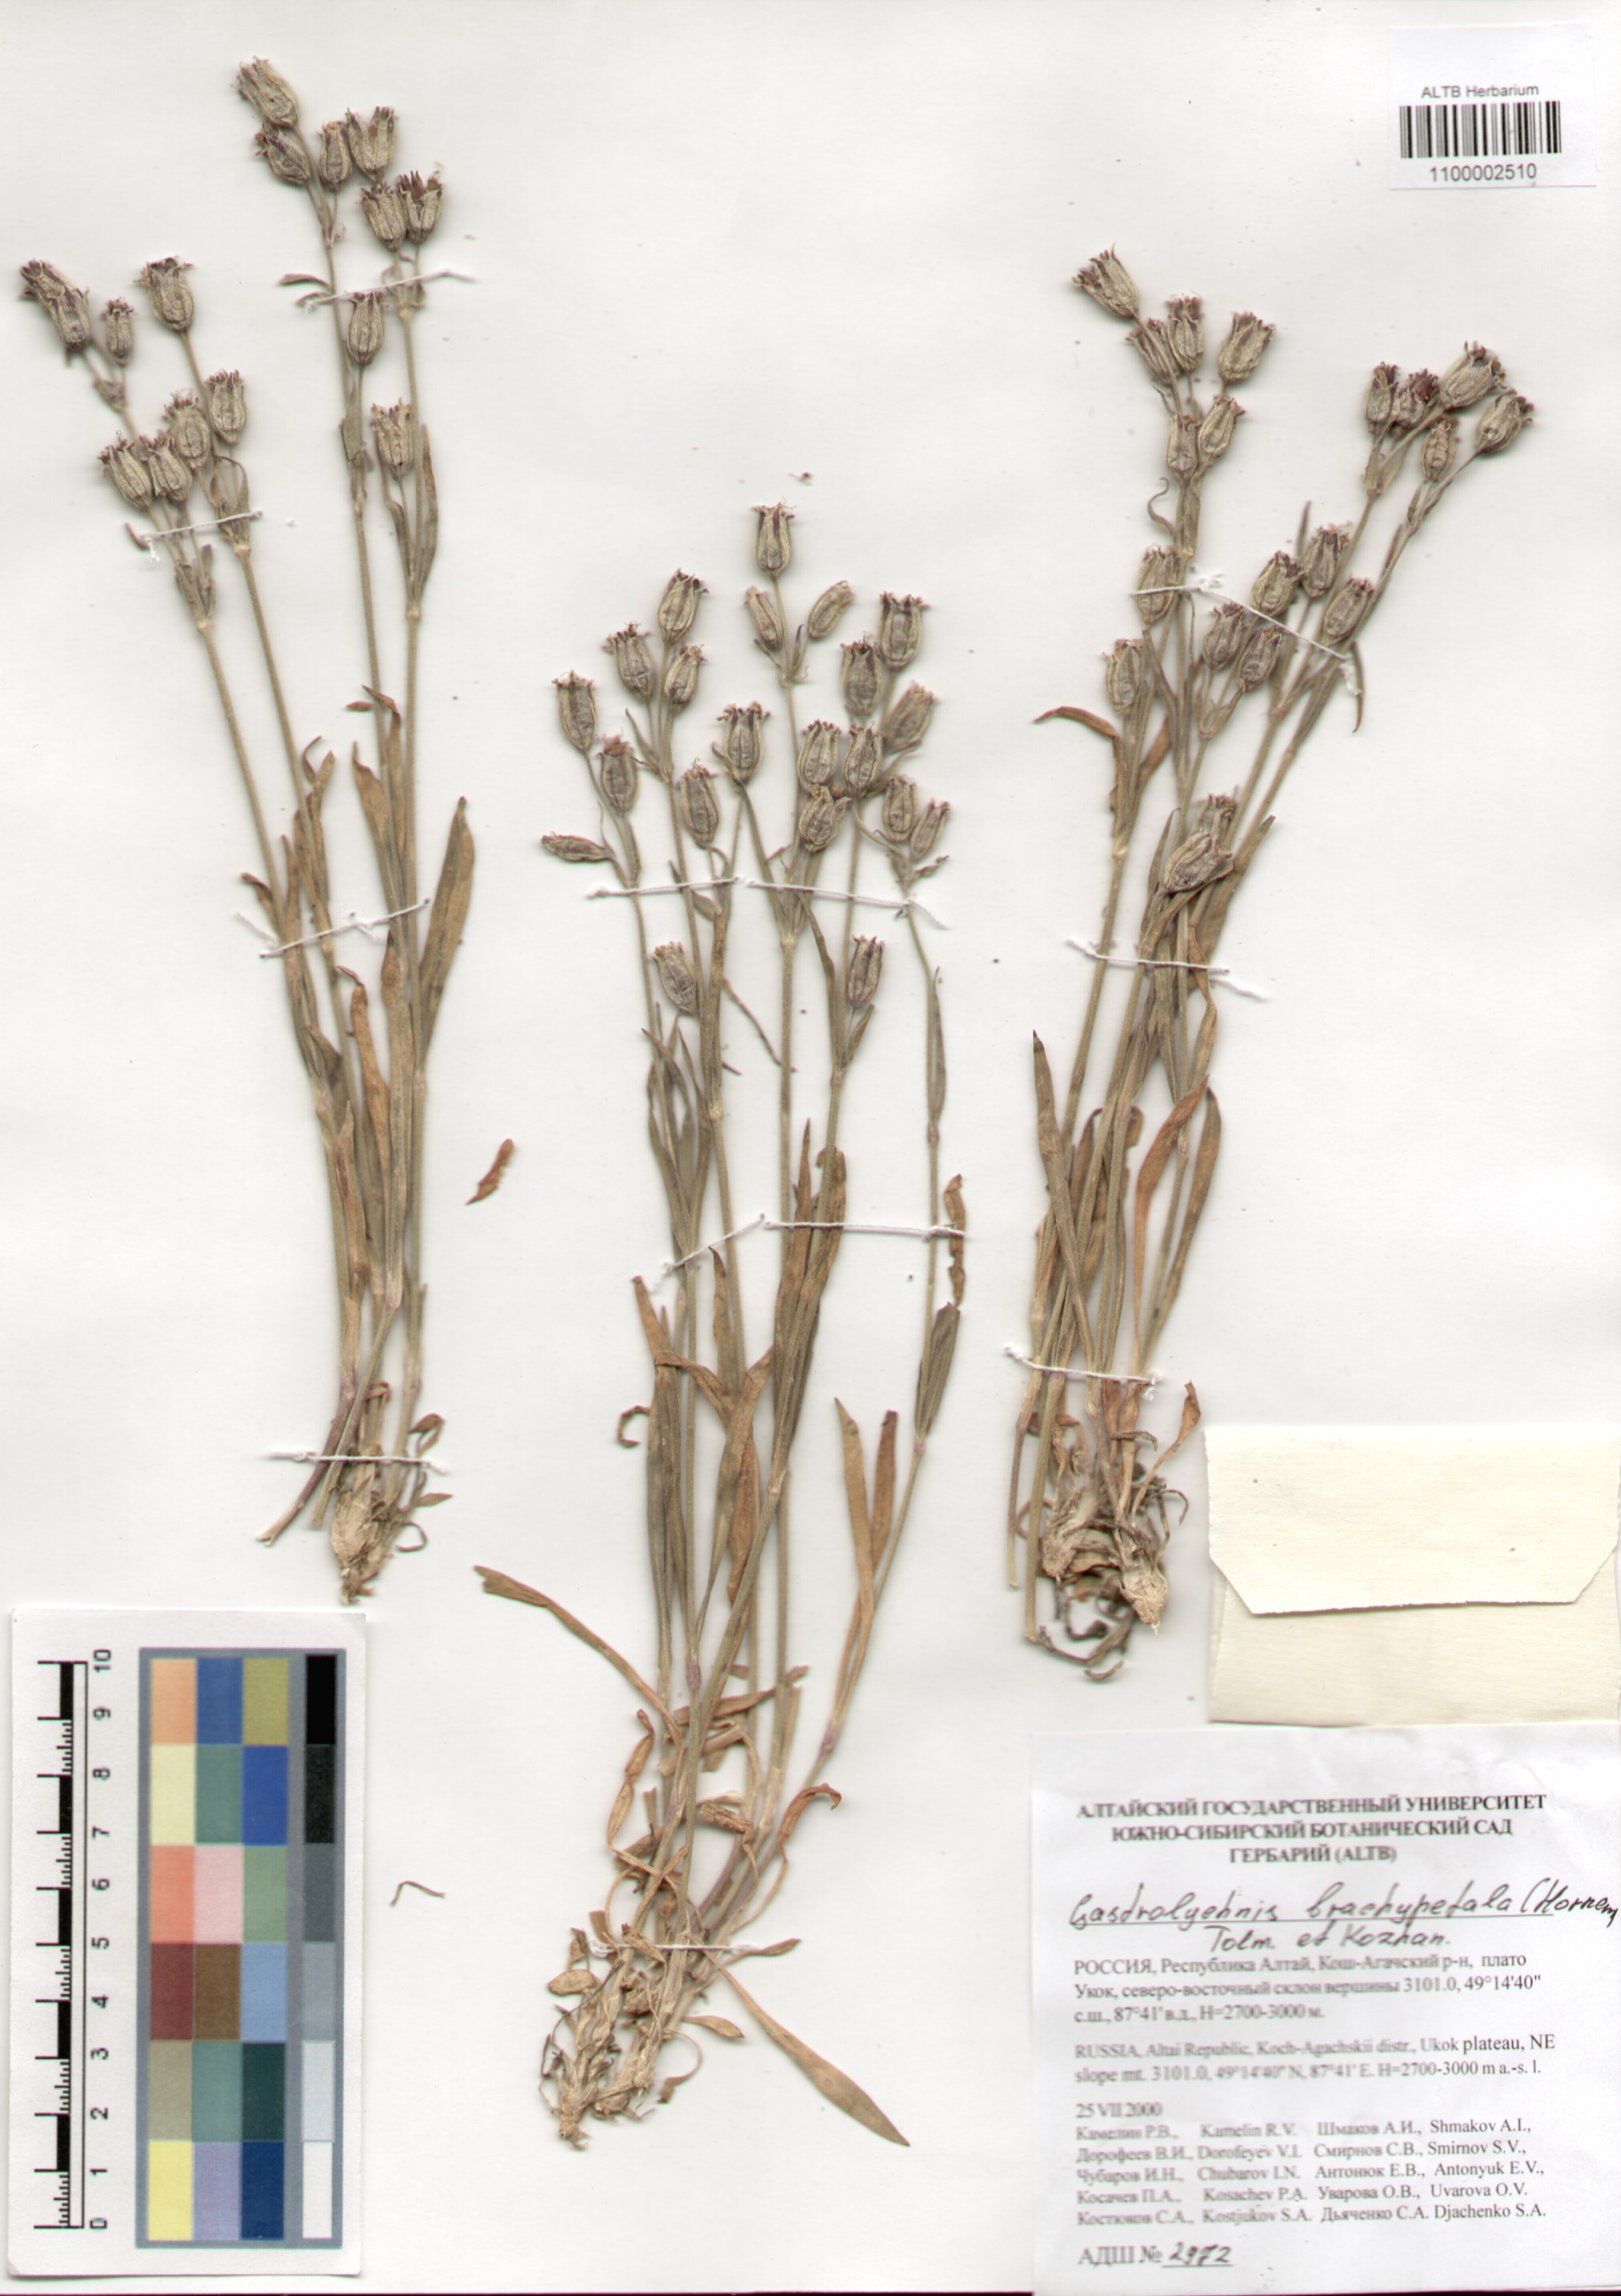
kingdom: Plantae
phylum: Tracheophyta
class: Magnoliopsida
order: Caryophyllales
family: Caryophyllaceae
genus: Silene
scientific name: Silene songarica
